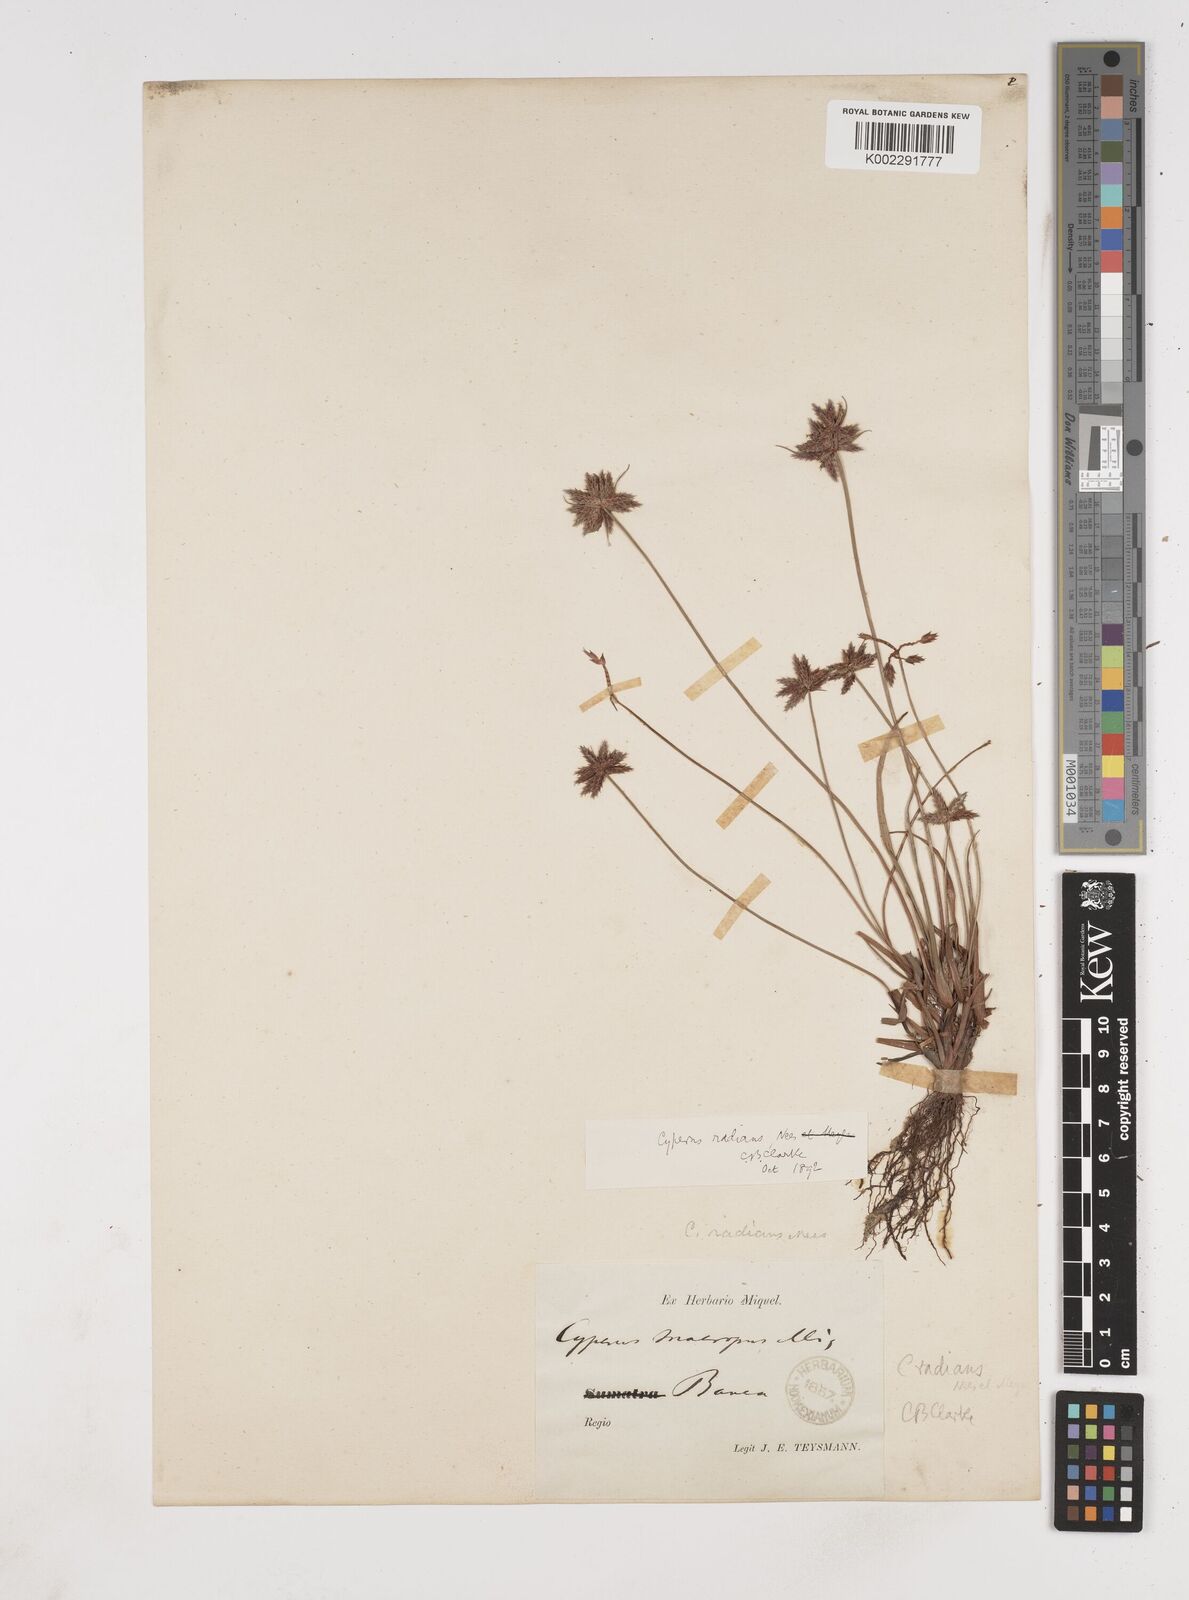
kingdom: Plantae
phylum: Tracheophyta
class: Liliopsida
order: Poales
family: Cyperaceae
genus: Cyperus
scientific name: Cyperus radians
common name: Short-stem cyperus
